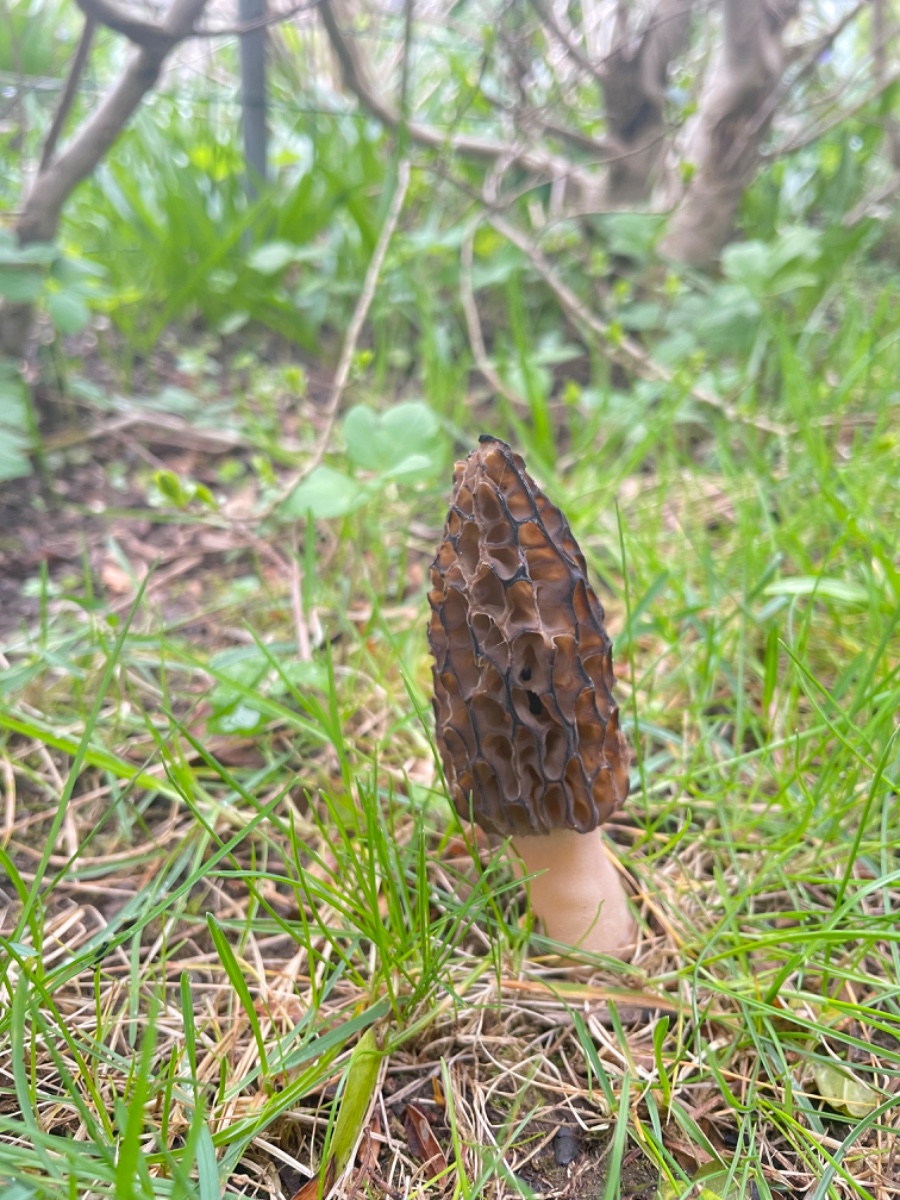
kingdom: Fungi
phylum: Ascomycota
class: Pezizomycetes
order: Pezizales
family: Morchellaceae
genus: Morchella
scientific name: Morchella esculenta
